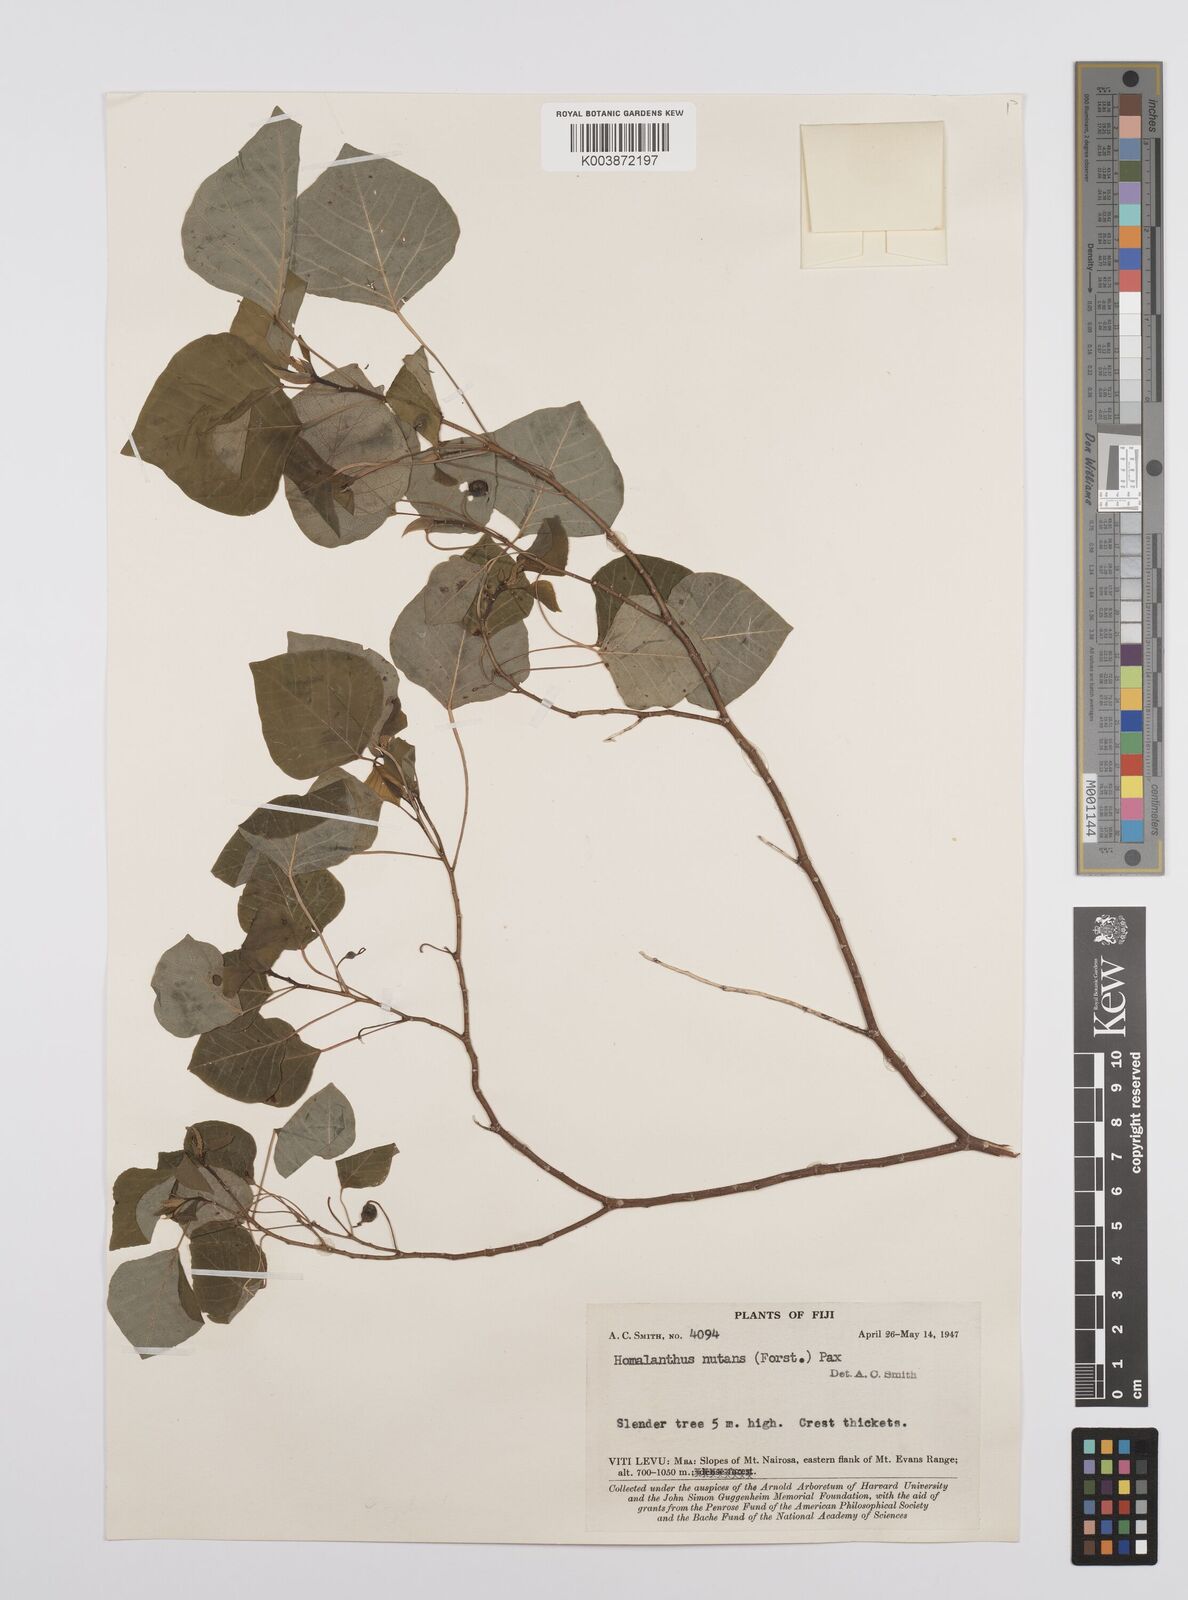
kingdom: Plantae
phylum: Tracheophyta
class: Magnoliopsida
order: Malpighiales
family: Euphorbiaceae
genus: Homalanthus
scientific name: Homalanthus nutans
